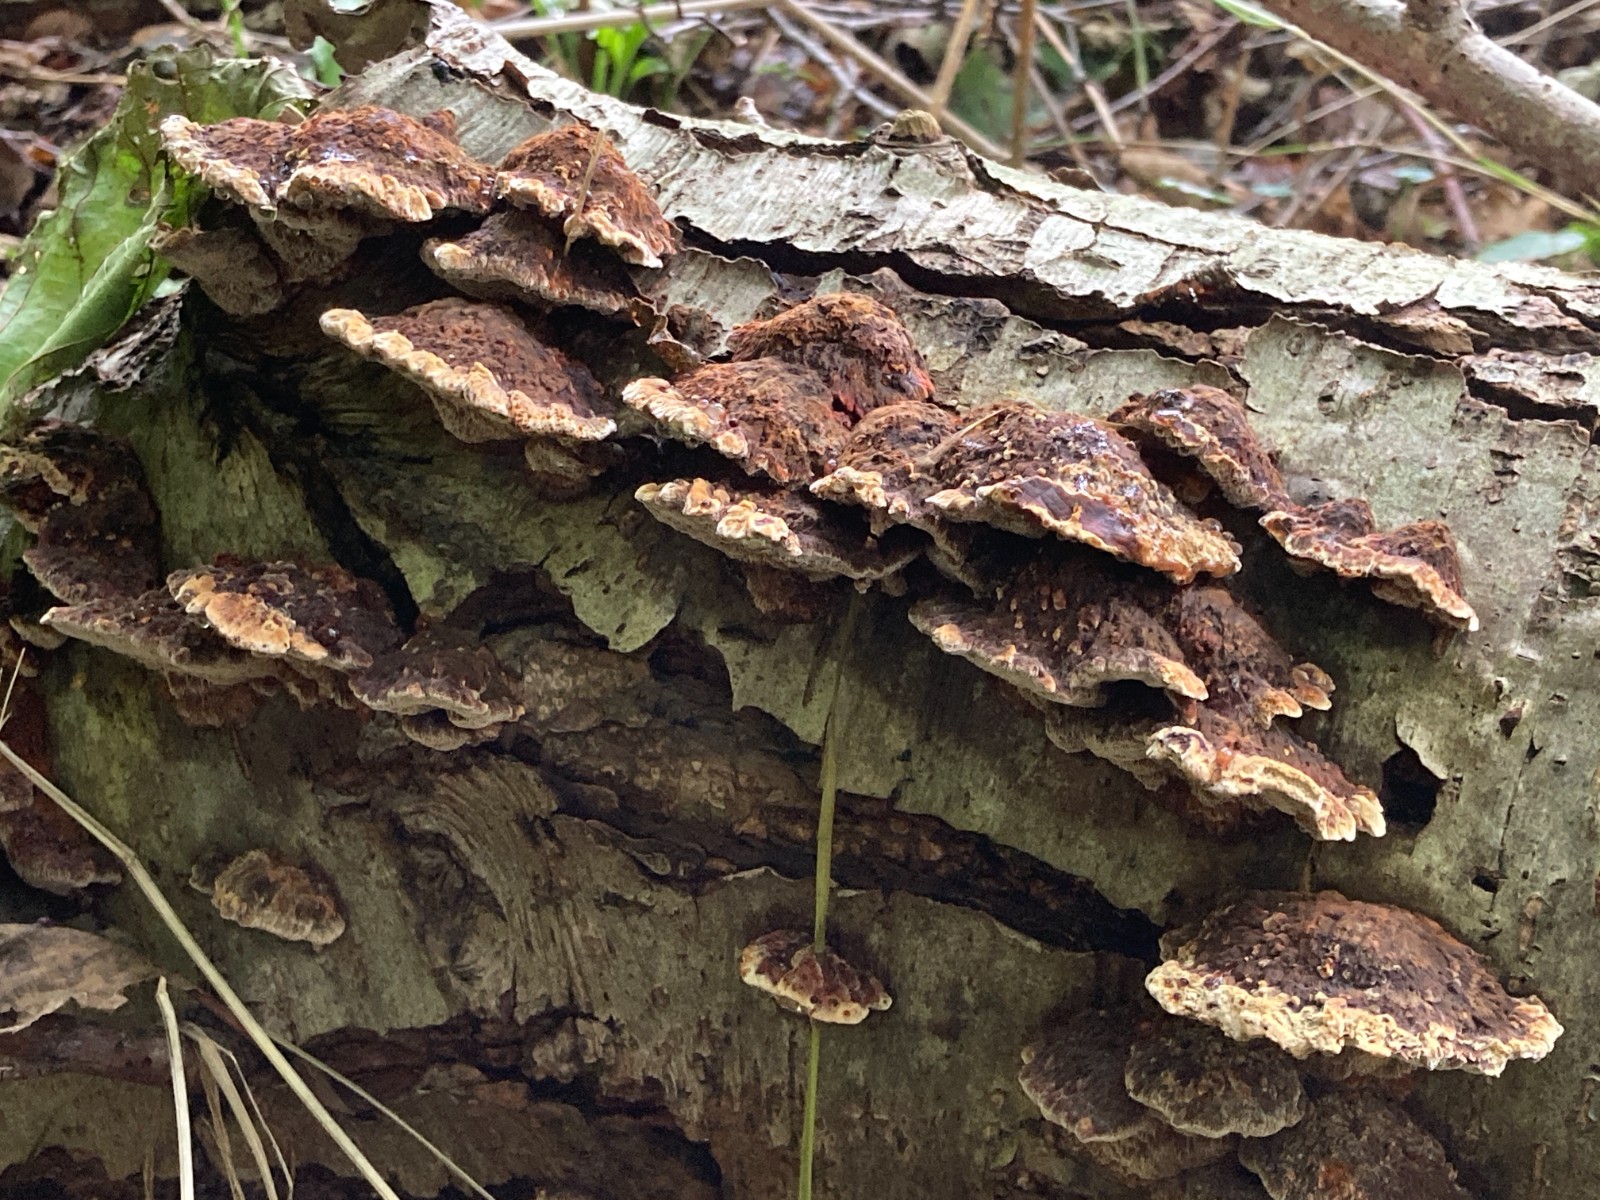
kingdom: Fungi
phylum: Basidiomycota
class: Agaricomycetes
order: Hymenochaetales
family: Hymenochaetaceae
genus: Xanthoporia
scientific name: Xanthoporia radiata
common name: elle-spejlporesvamp
